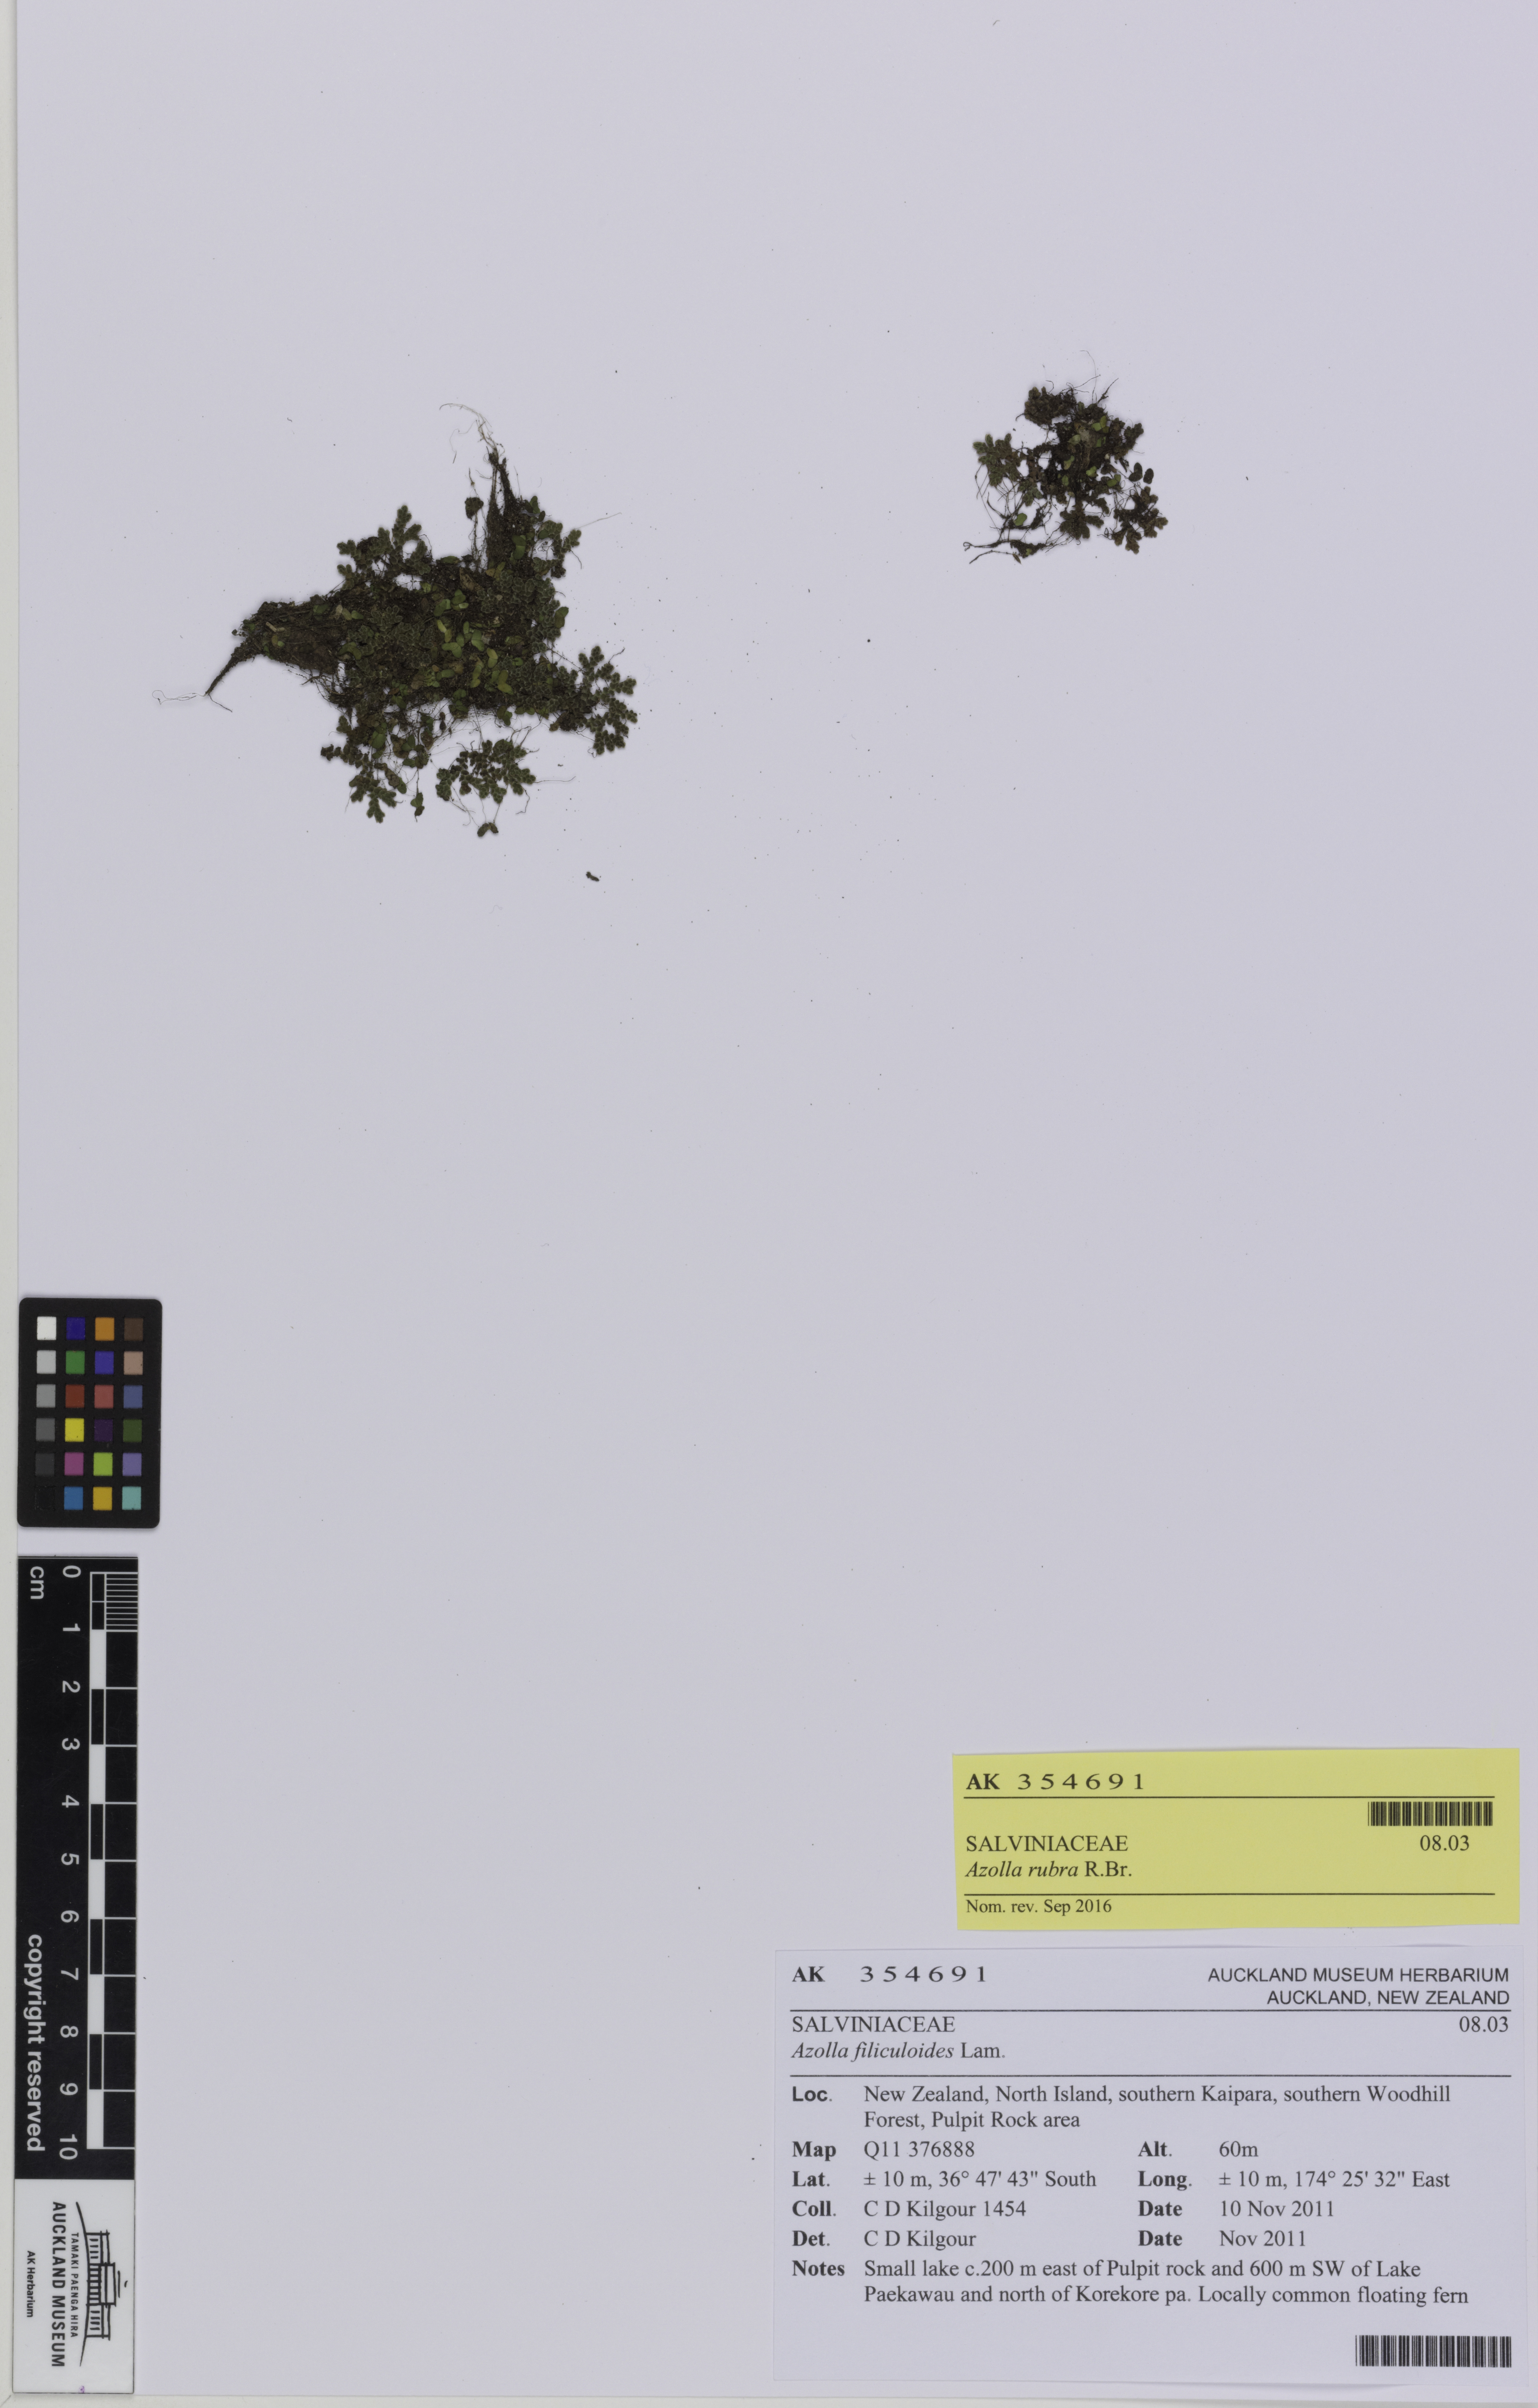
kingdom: Plantae
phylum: Tracheophyta
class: Polypodiopsida
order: Salviniales
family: Salviniaceae
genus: Azolla
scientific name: Azolla rubra
